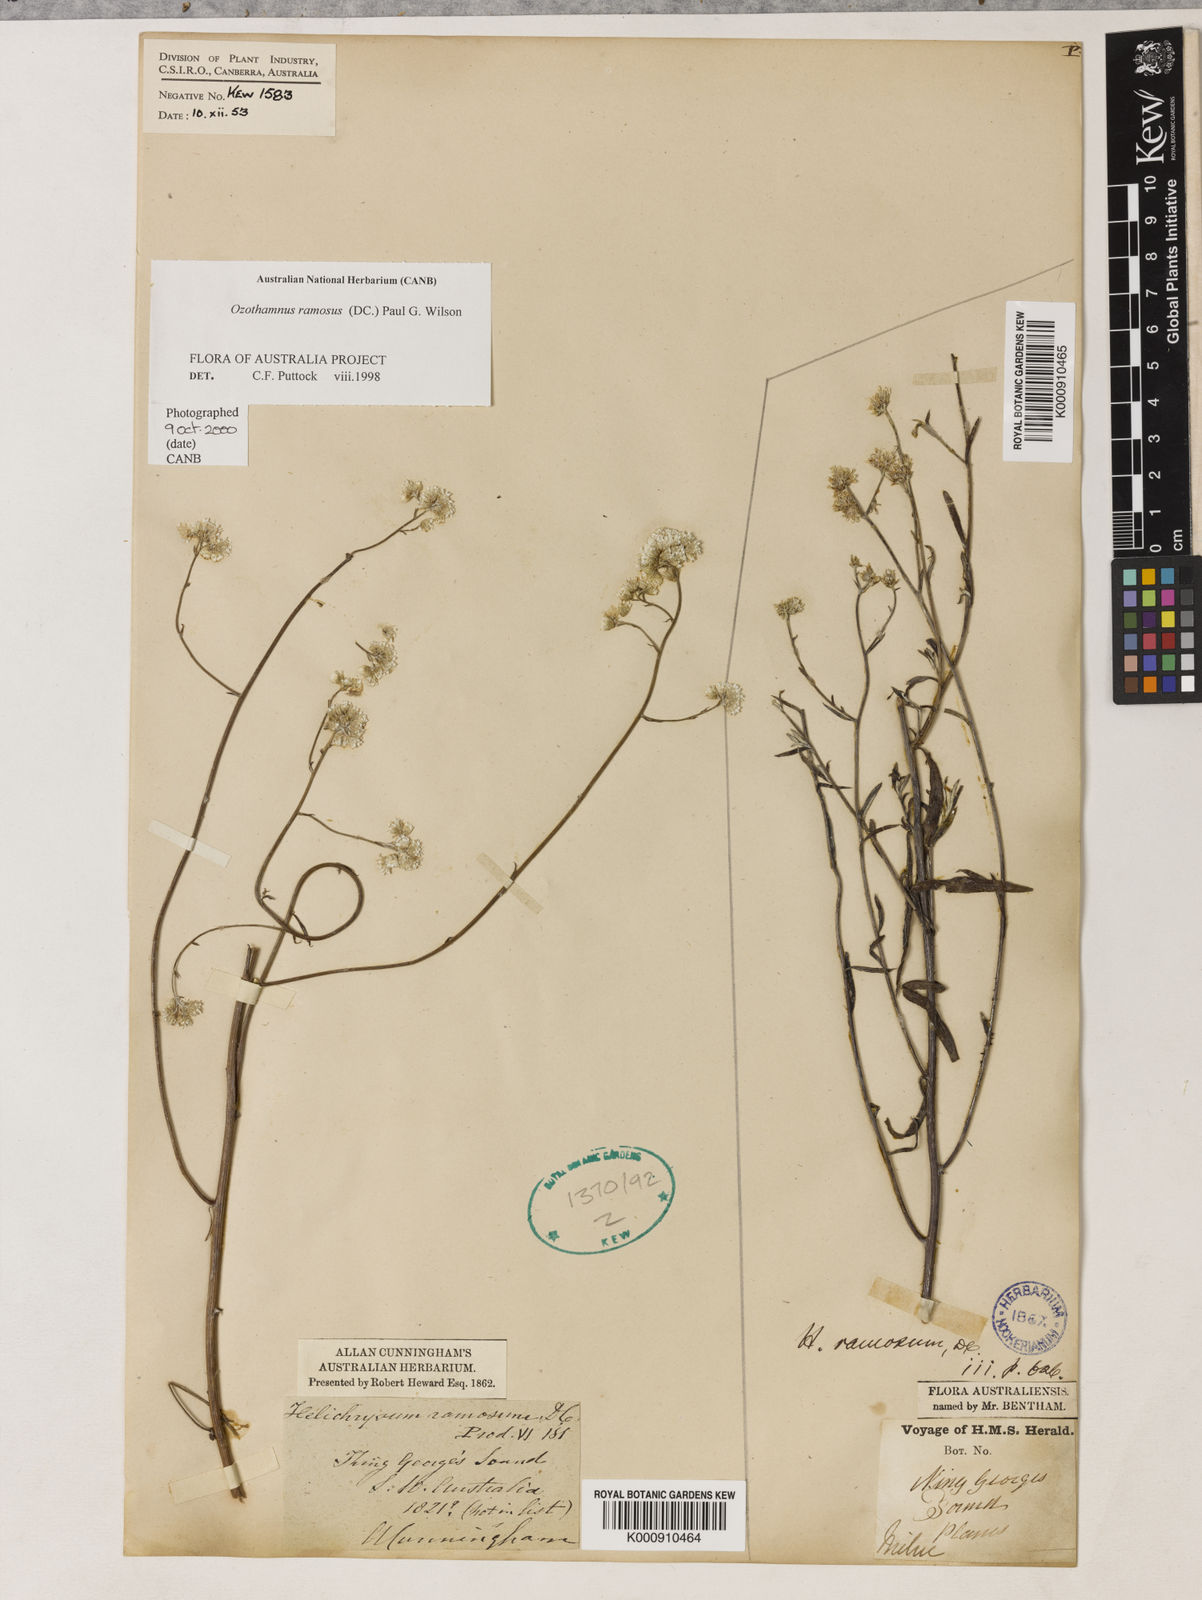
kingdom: Plantae
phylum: Tracheophyta
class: Magnoliopsida
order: Asterales
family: Asteraceae
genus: Pithocarpa
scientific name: Pithocarpa ramosa
